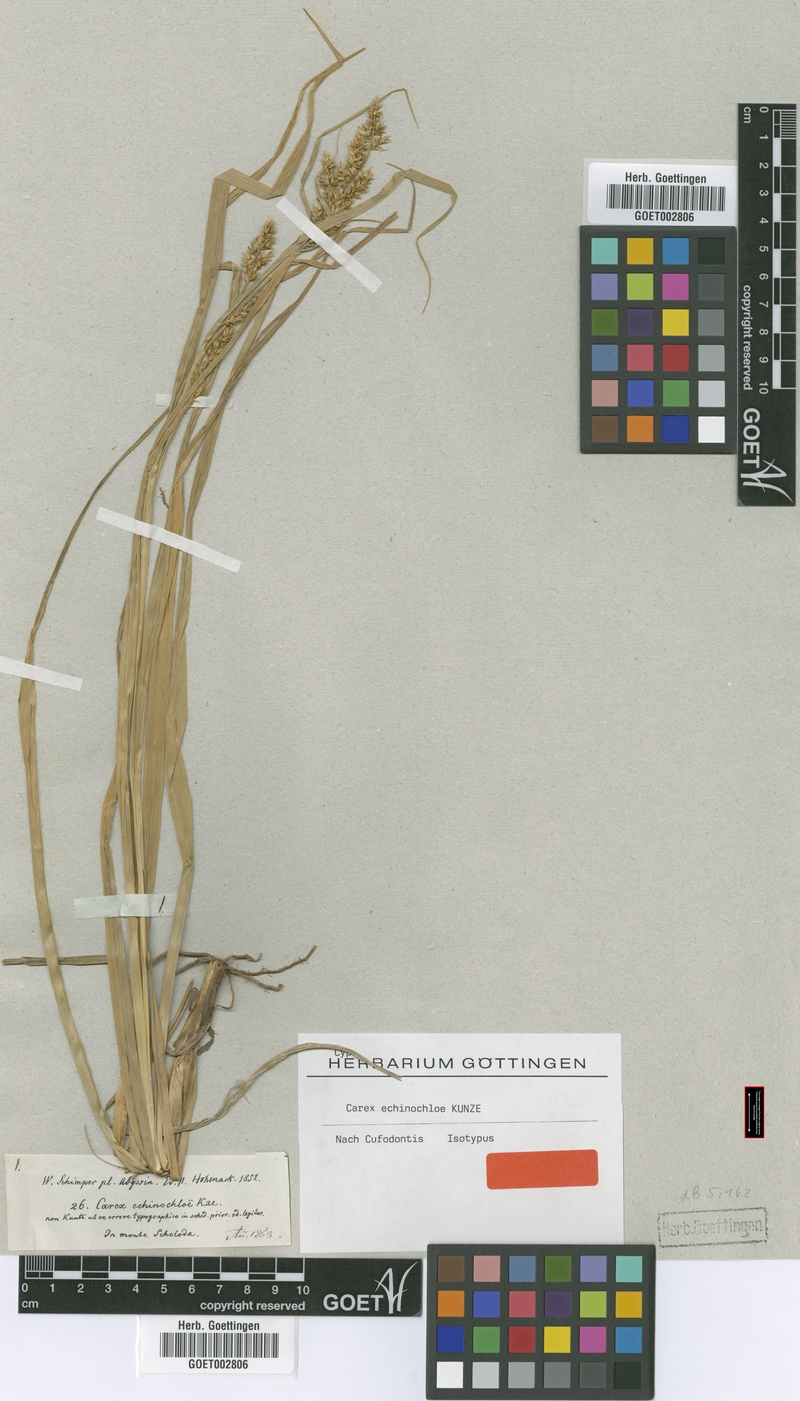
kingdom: Plantae
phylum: Tracheophyta
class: Liliopsida
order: Poales
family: Cyperaceae
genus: Carex
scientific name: Carex echinochloe
